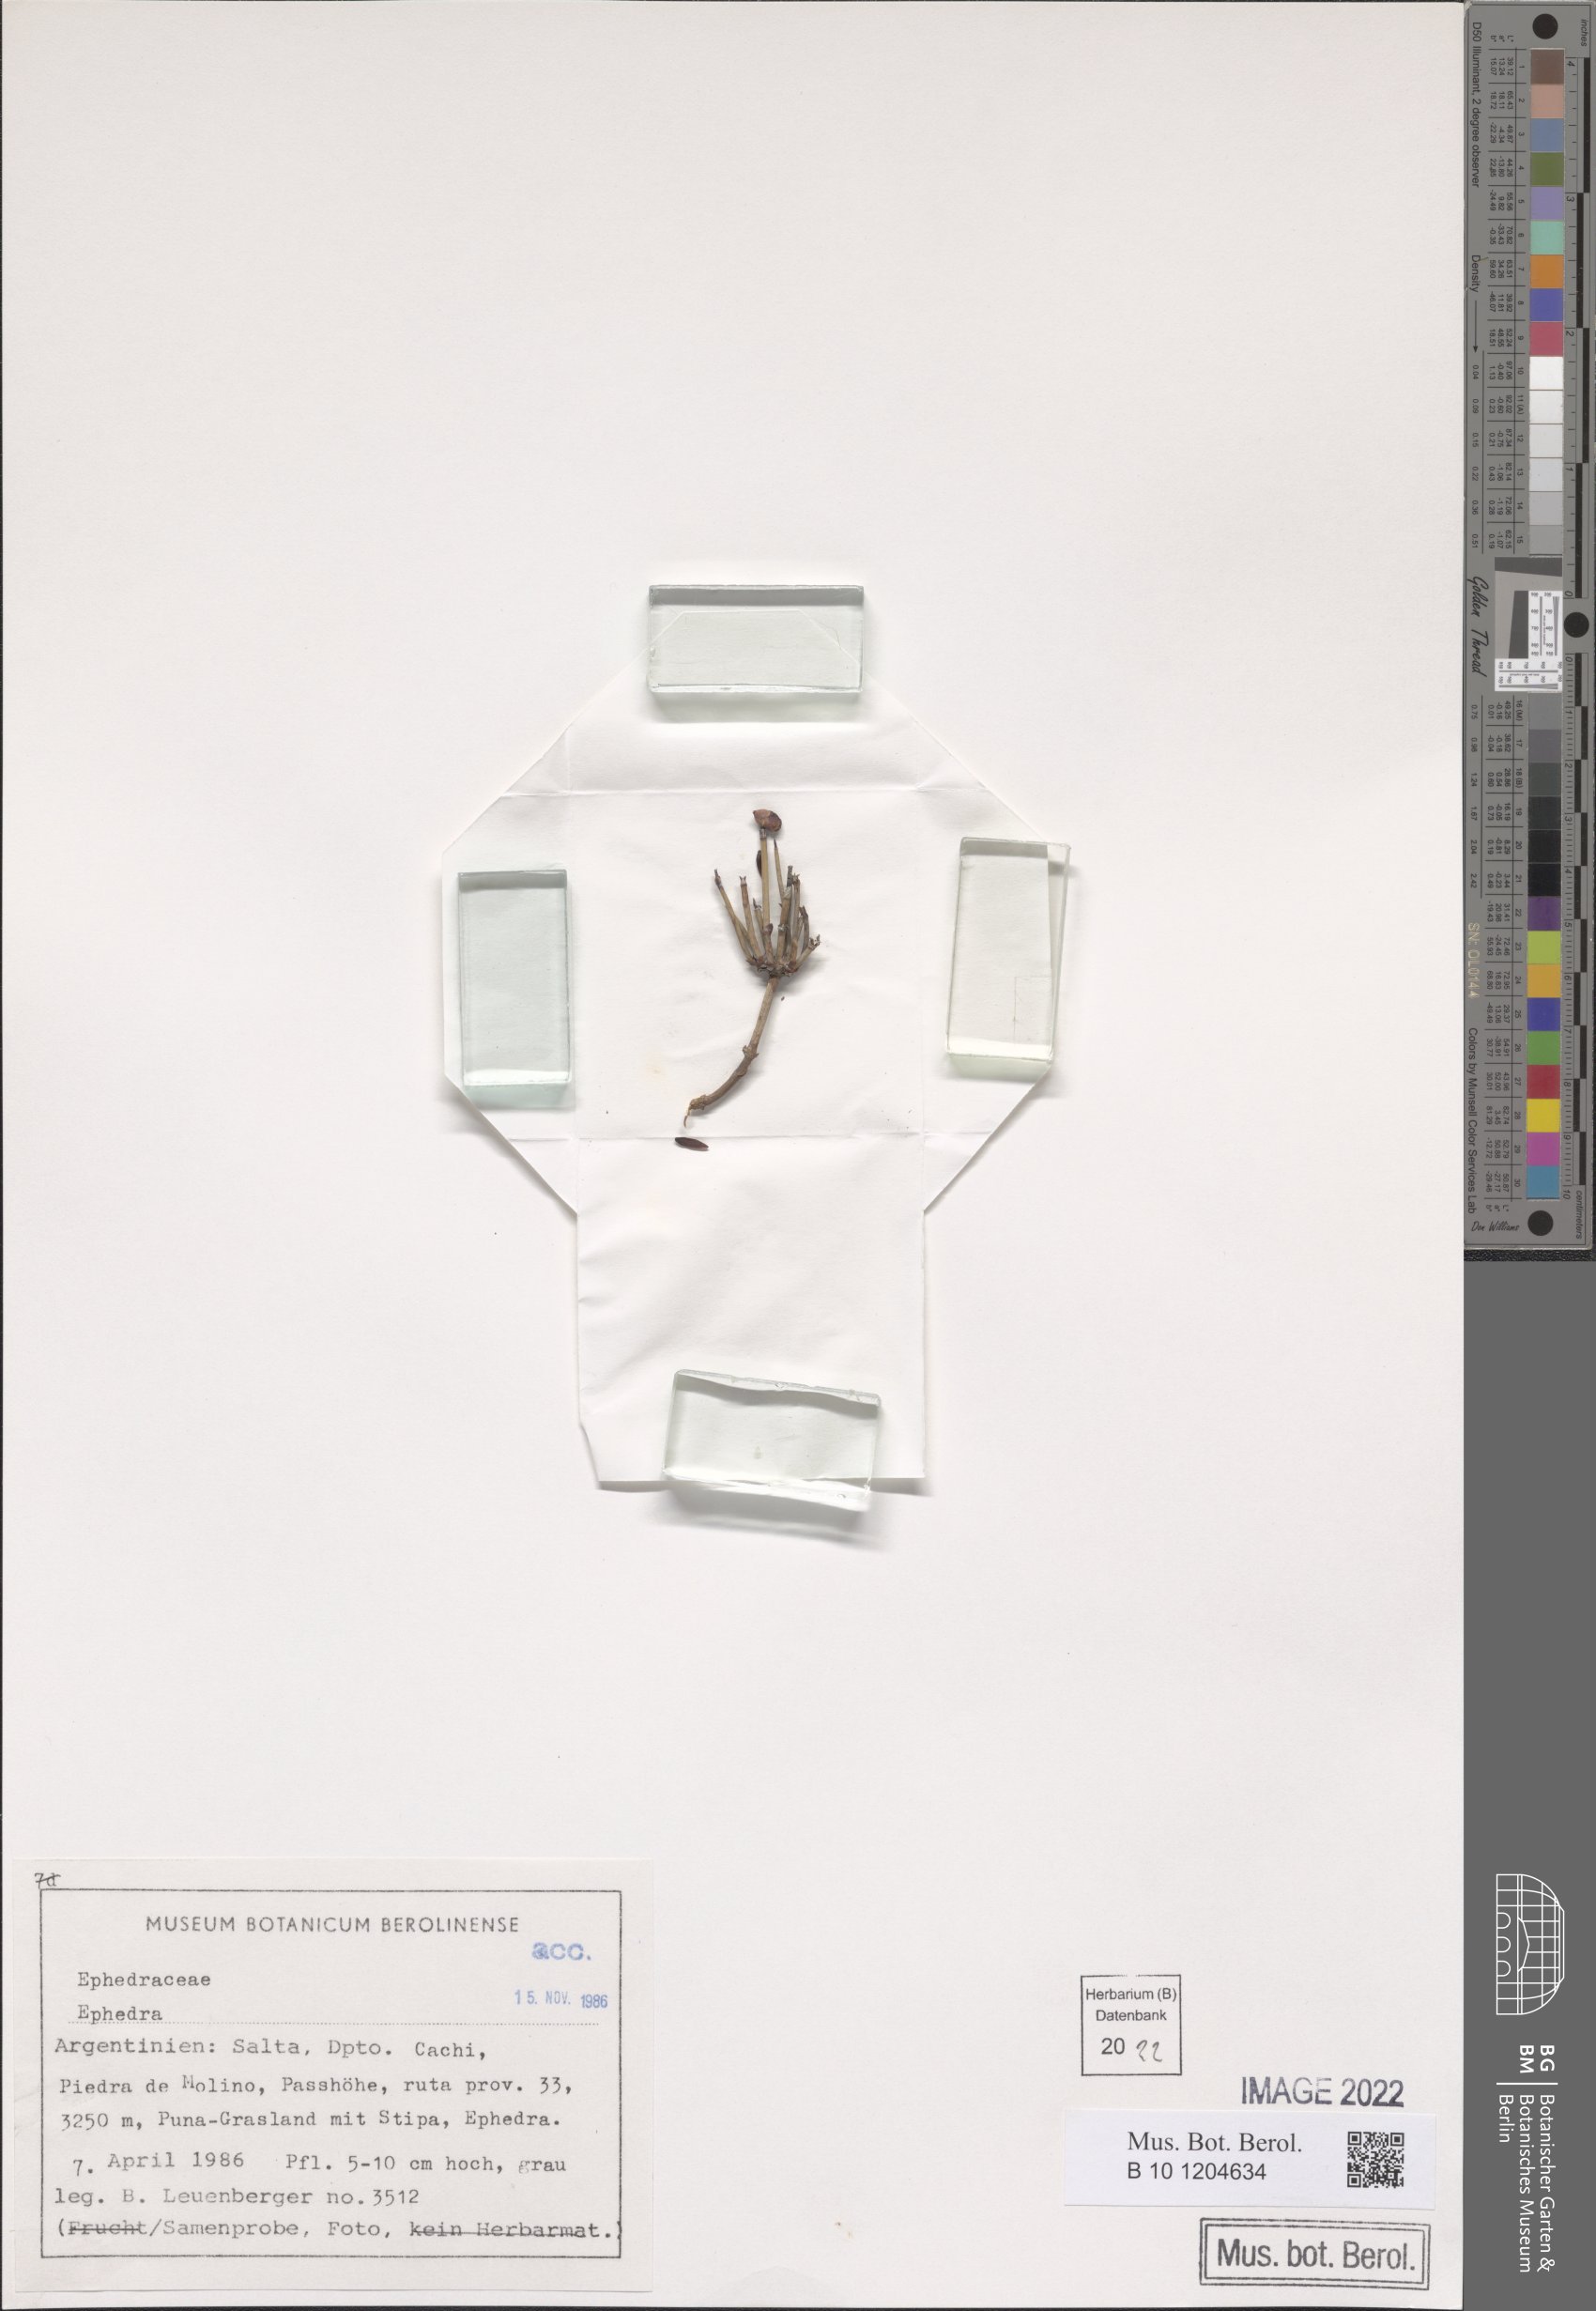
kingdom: Plantae
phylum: Tracheophyta
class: Gnetopsida
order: Ephedrales
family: Ephedraceae
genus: Ephedra
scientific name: Ephedra
